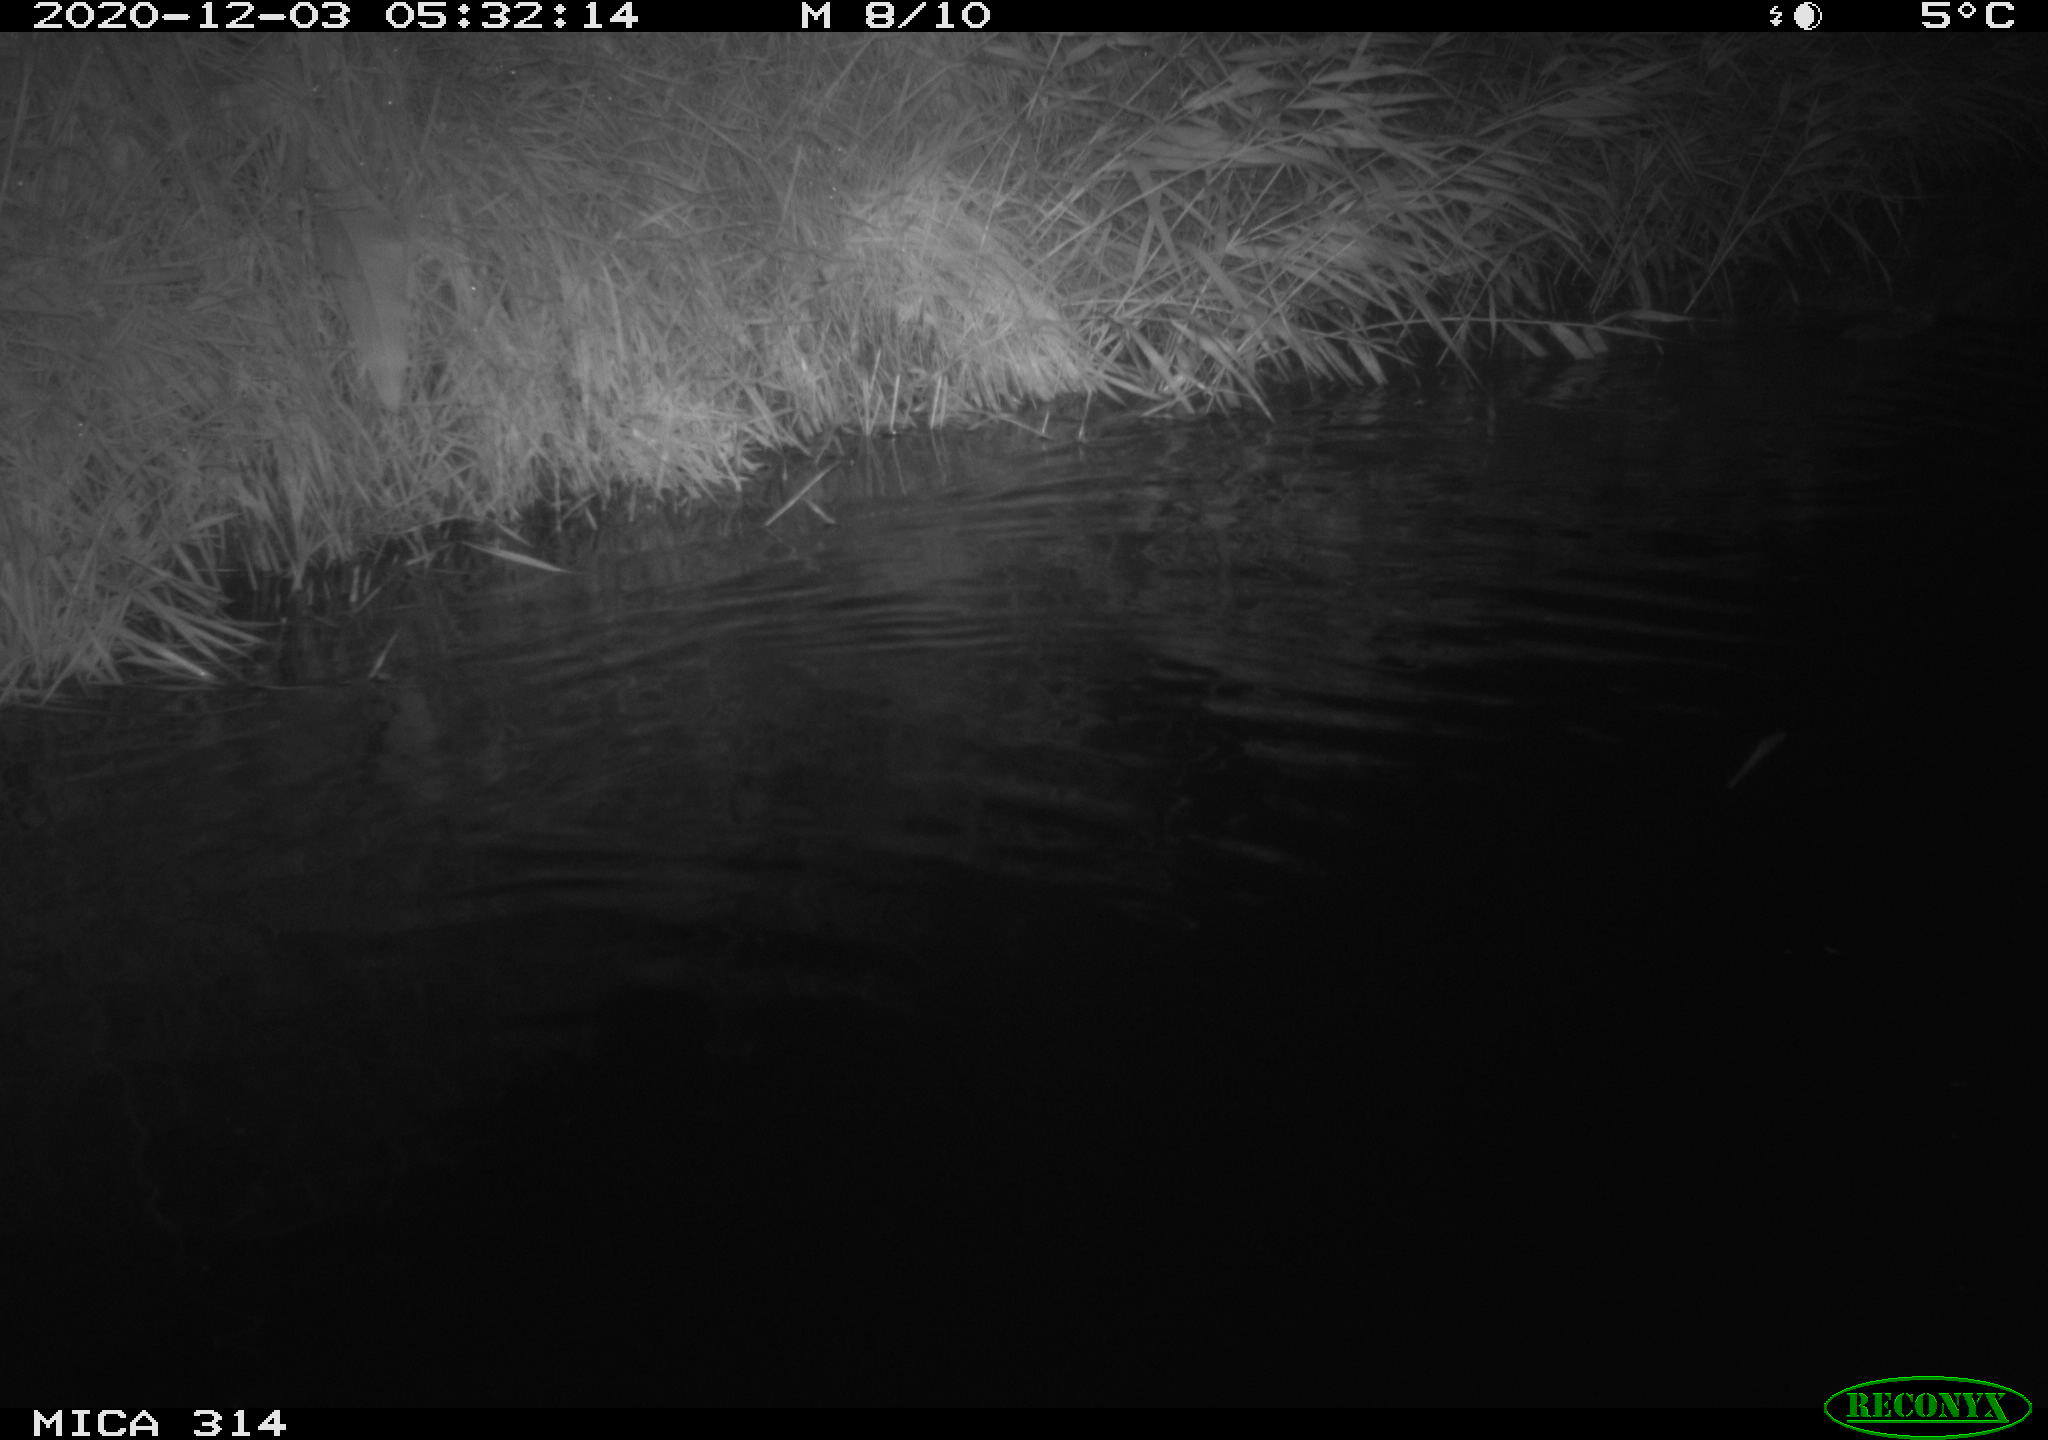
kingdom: Animalia
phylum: Chordata
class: Mammalia
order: Rodentia
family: Muridae
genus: Rattus
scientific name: Rattus norvegicus
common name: Brown rat
